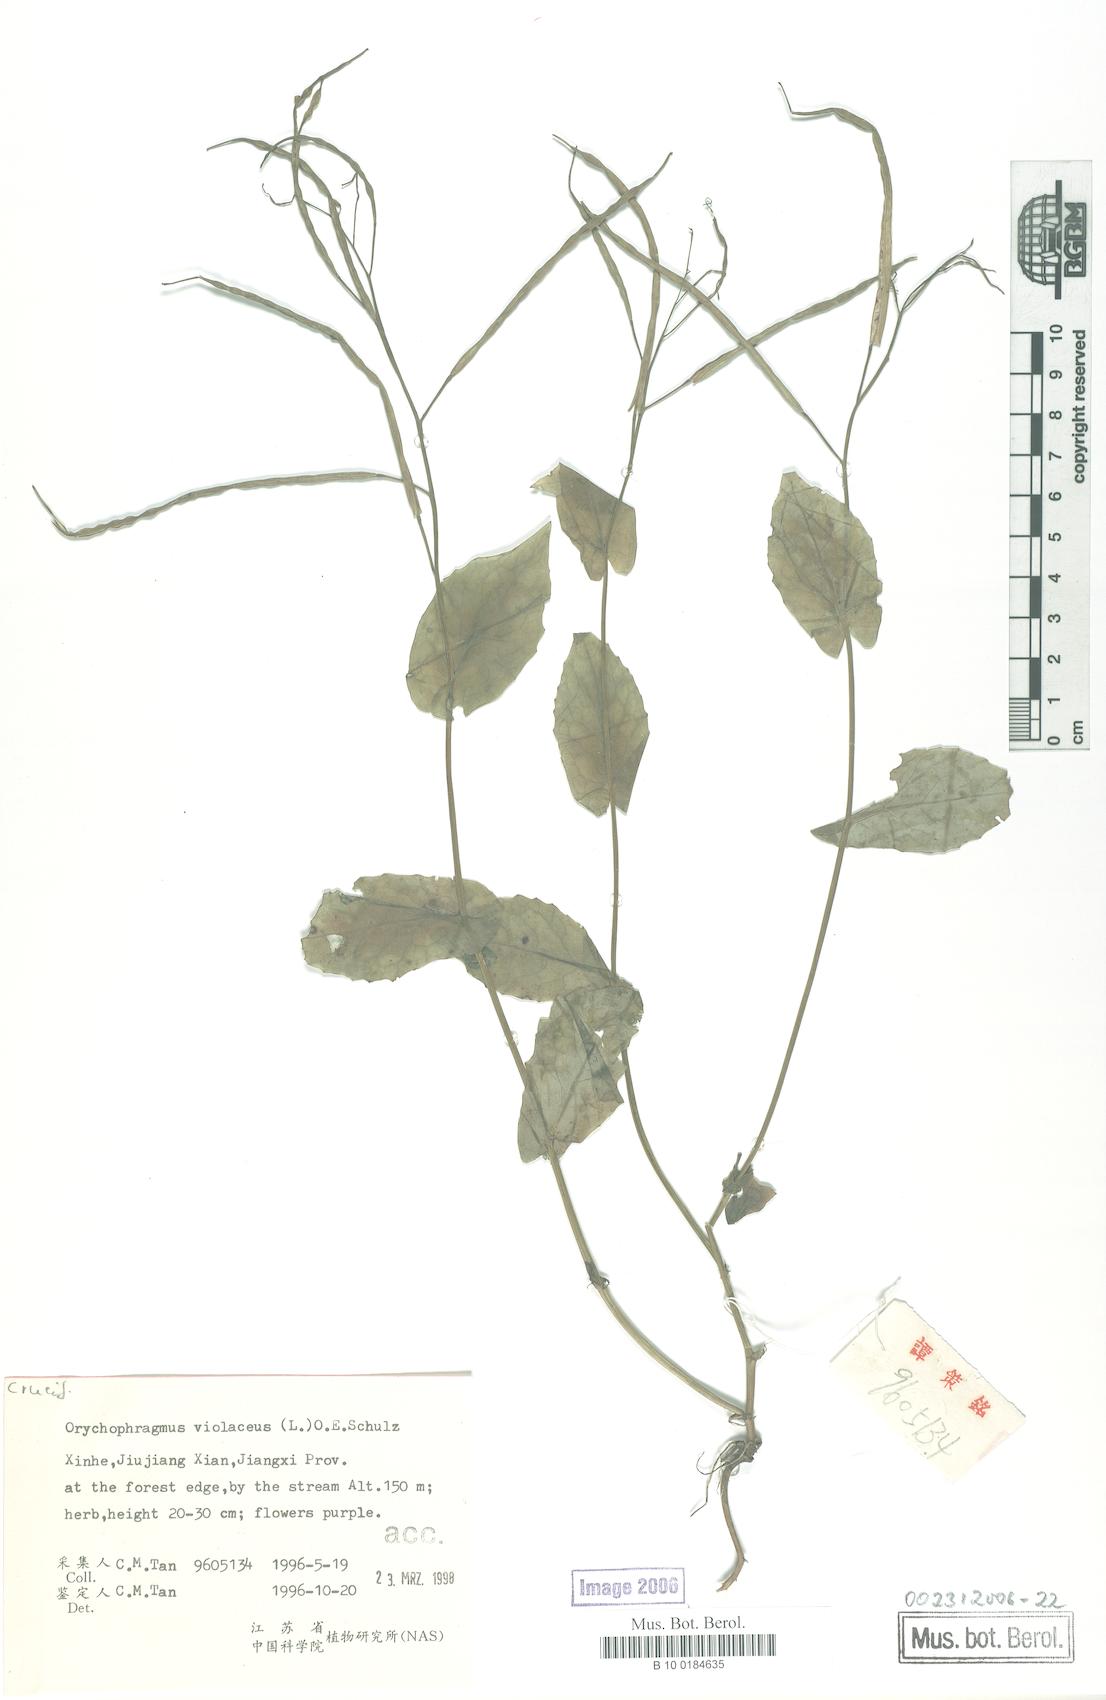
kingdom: Plantae
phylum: Tracheophyta
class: Magnoliopsida
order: Brassicales
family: Brassicaceae
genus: Orychophragmus
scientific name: Orychophragmus violaceus
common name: Mustard
